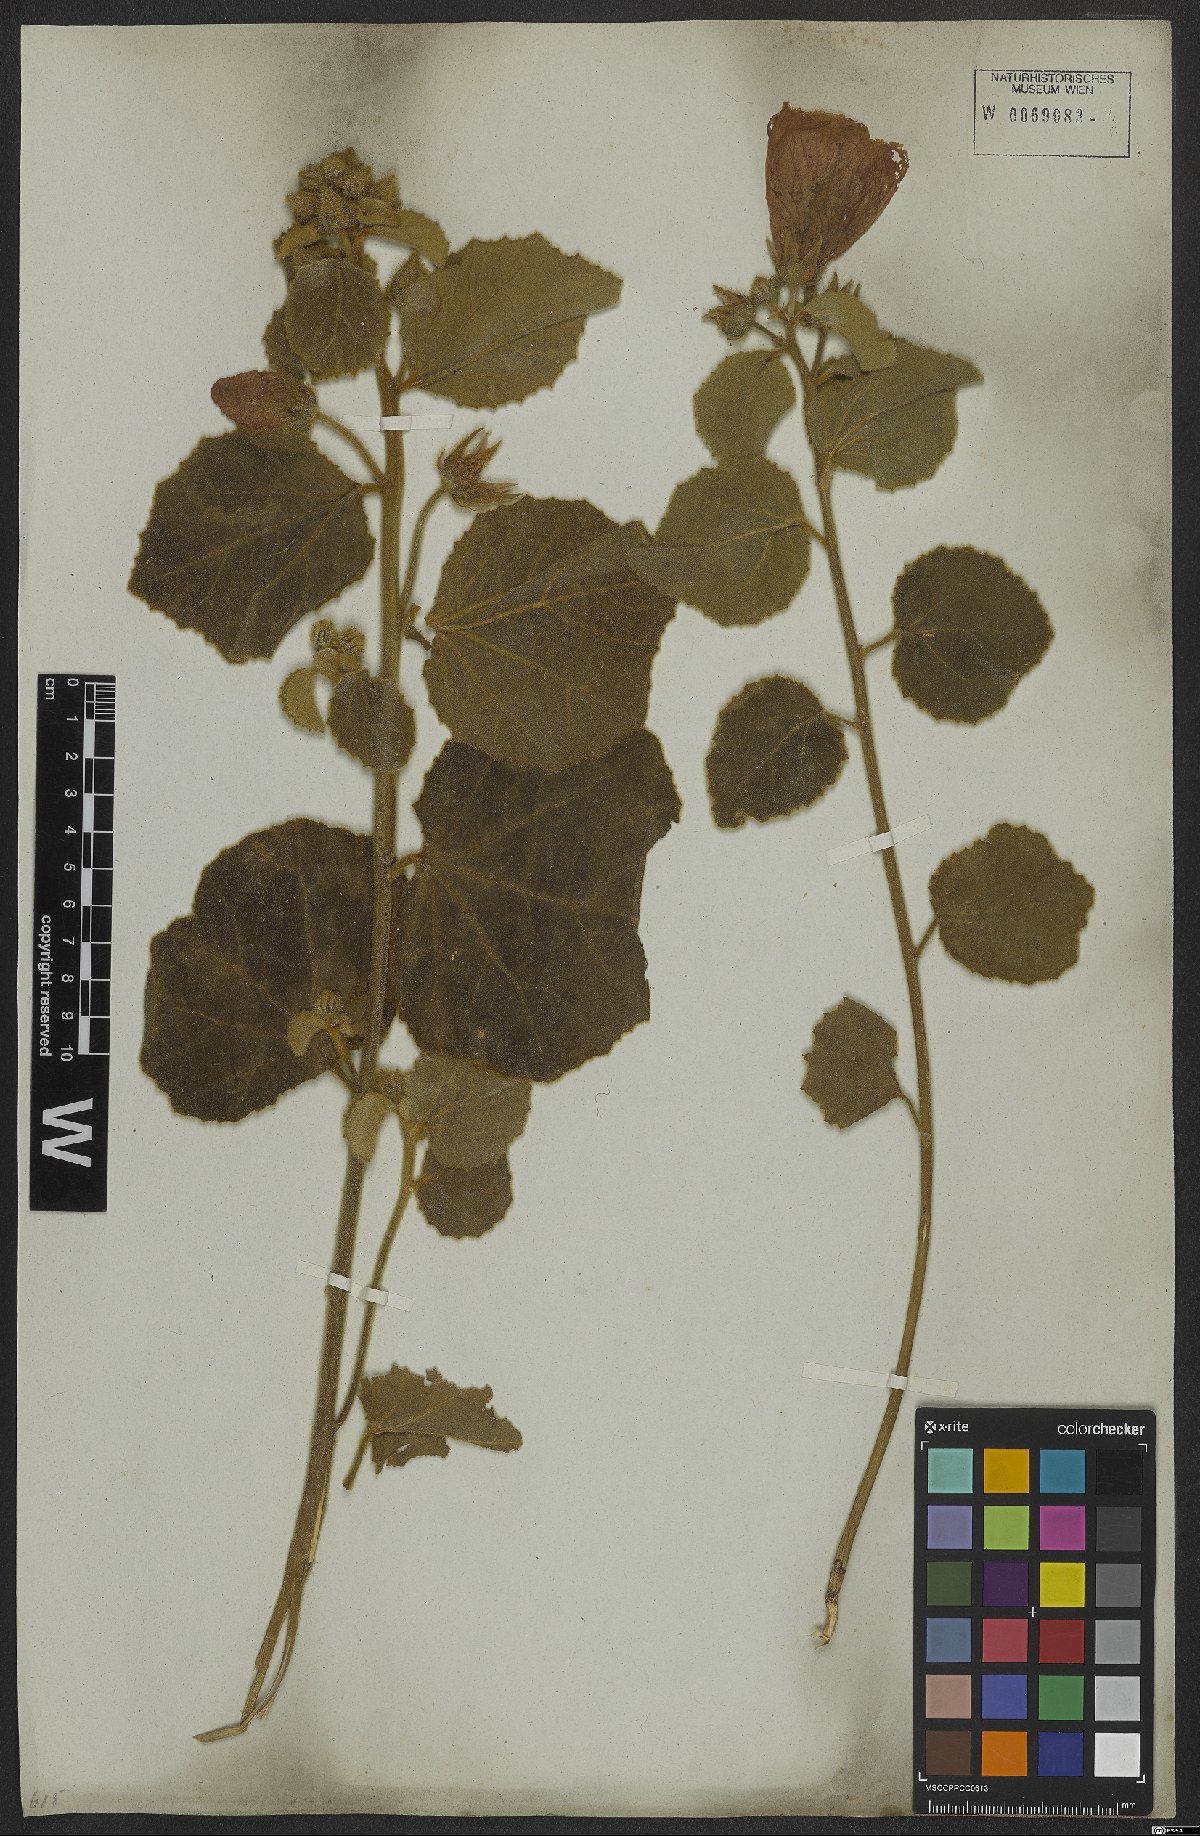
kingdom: Plantae
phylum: Tracheophyta
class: Magnoliopsida
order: Malvales
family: Malvaceae
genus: Abelmoschus
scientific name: Abelmoschus
